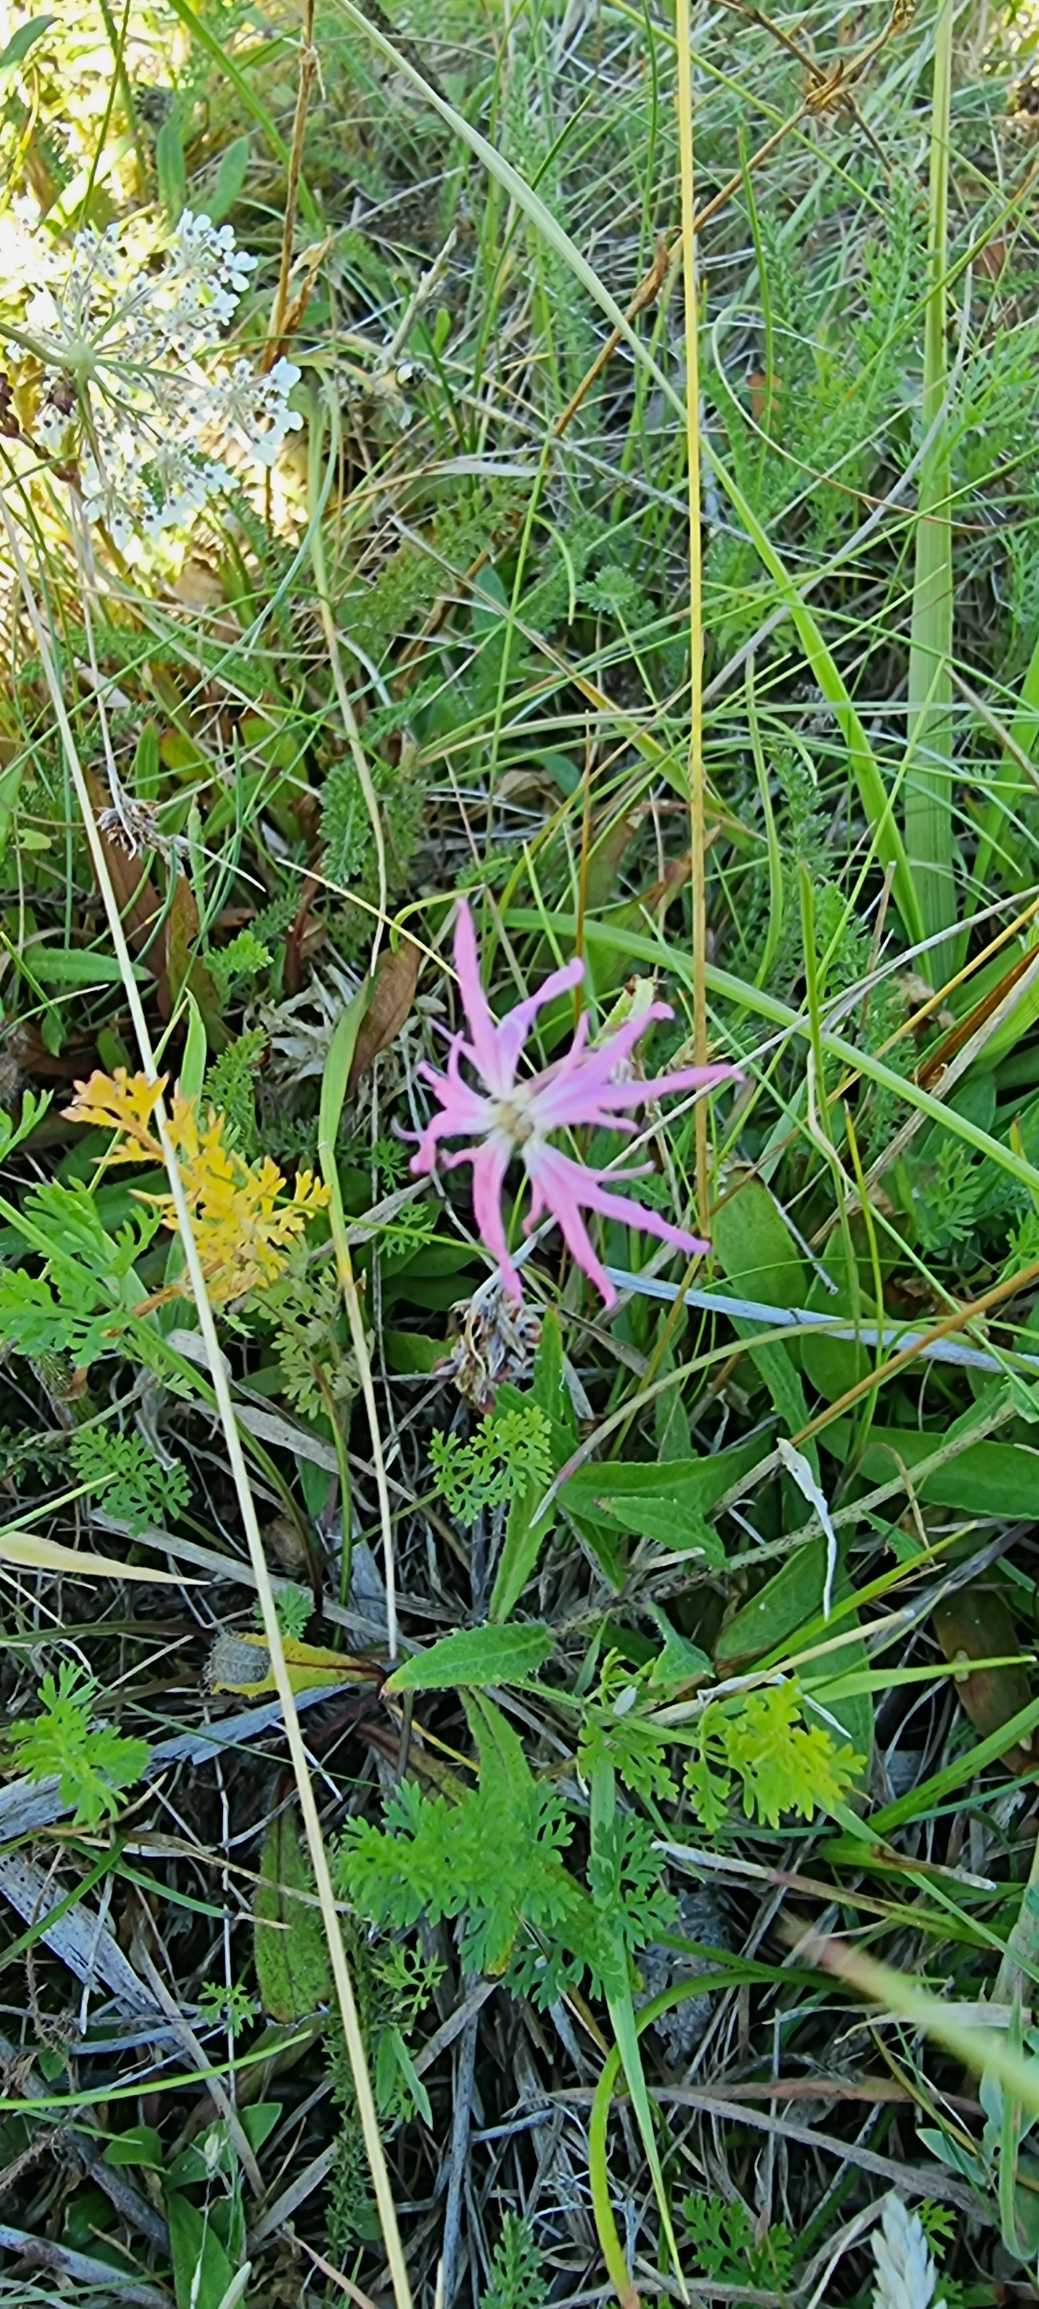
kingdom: Plantae
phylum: Tracheophyta
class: Magnoliopsida
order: Caryophyllales
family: Caryophyllaceae
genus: Silene
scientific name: Silene flos-cuculi
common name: Trævlekrone
